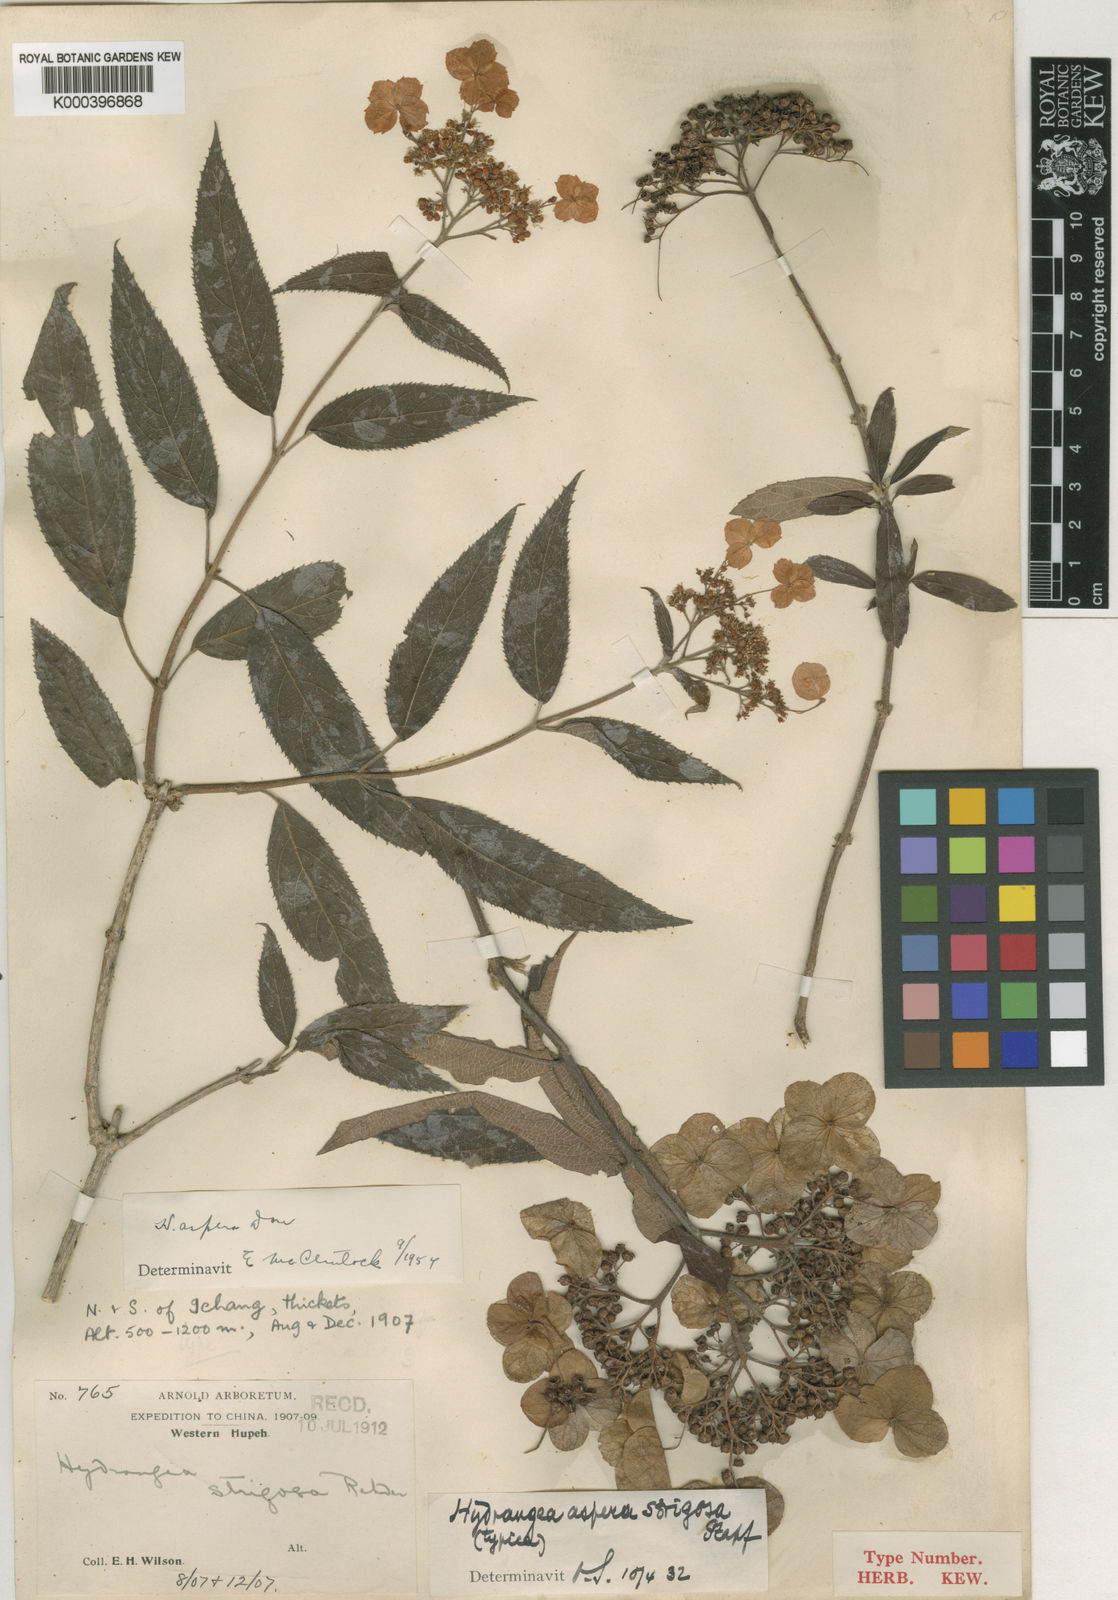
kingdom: Plantae
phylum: Tracheophyta
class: Magnoliopsida
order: Cornales
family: Hydrangeaceae
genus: Hydrangea
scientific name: Hydrangea aspera
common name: Rough-leaf hydrangea
